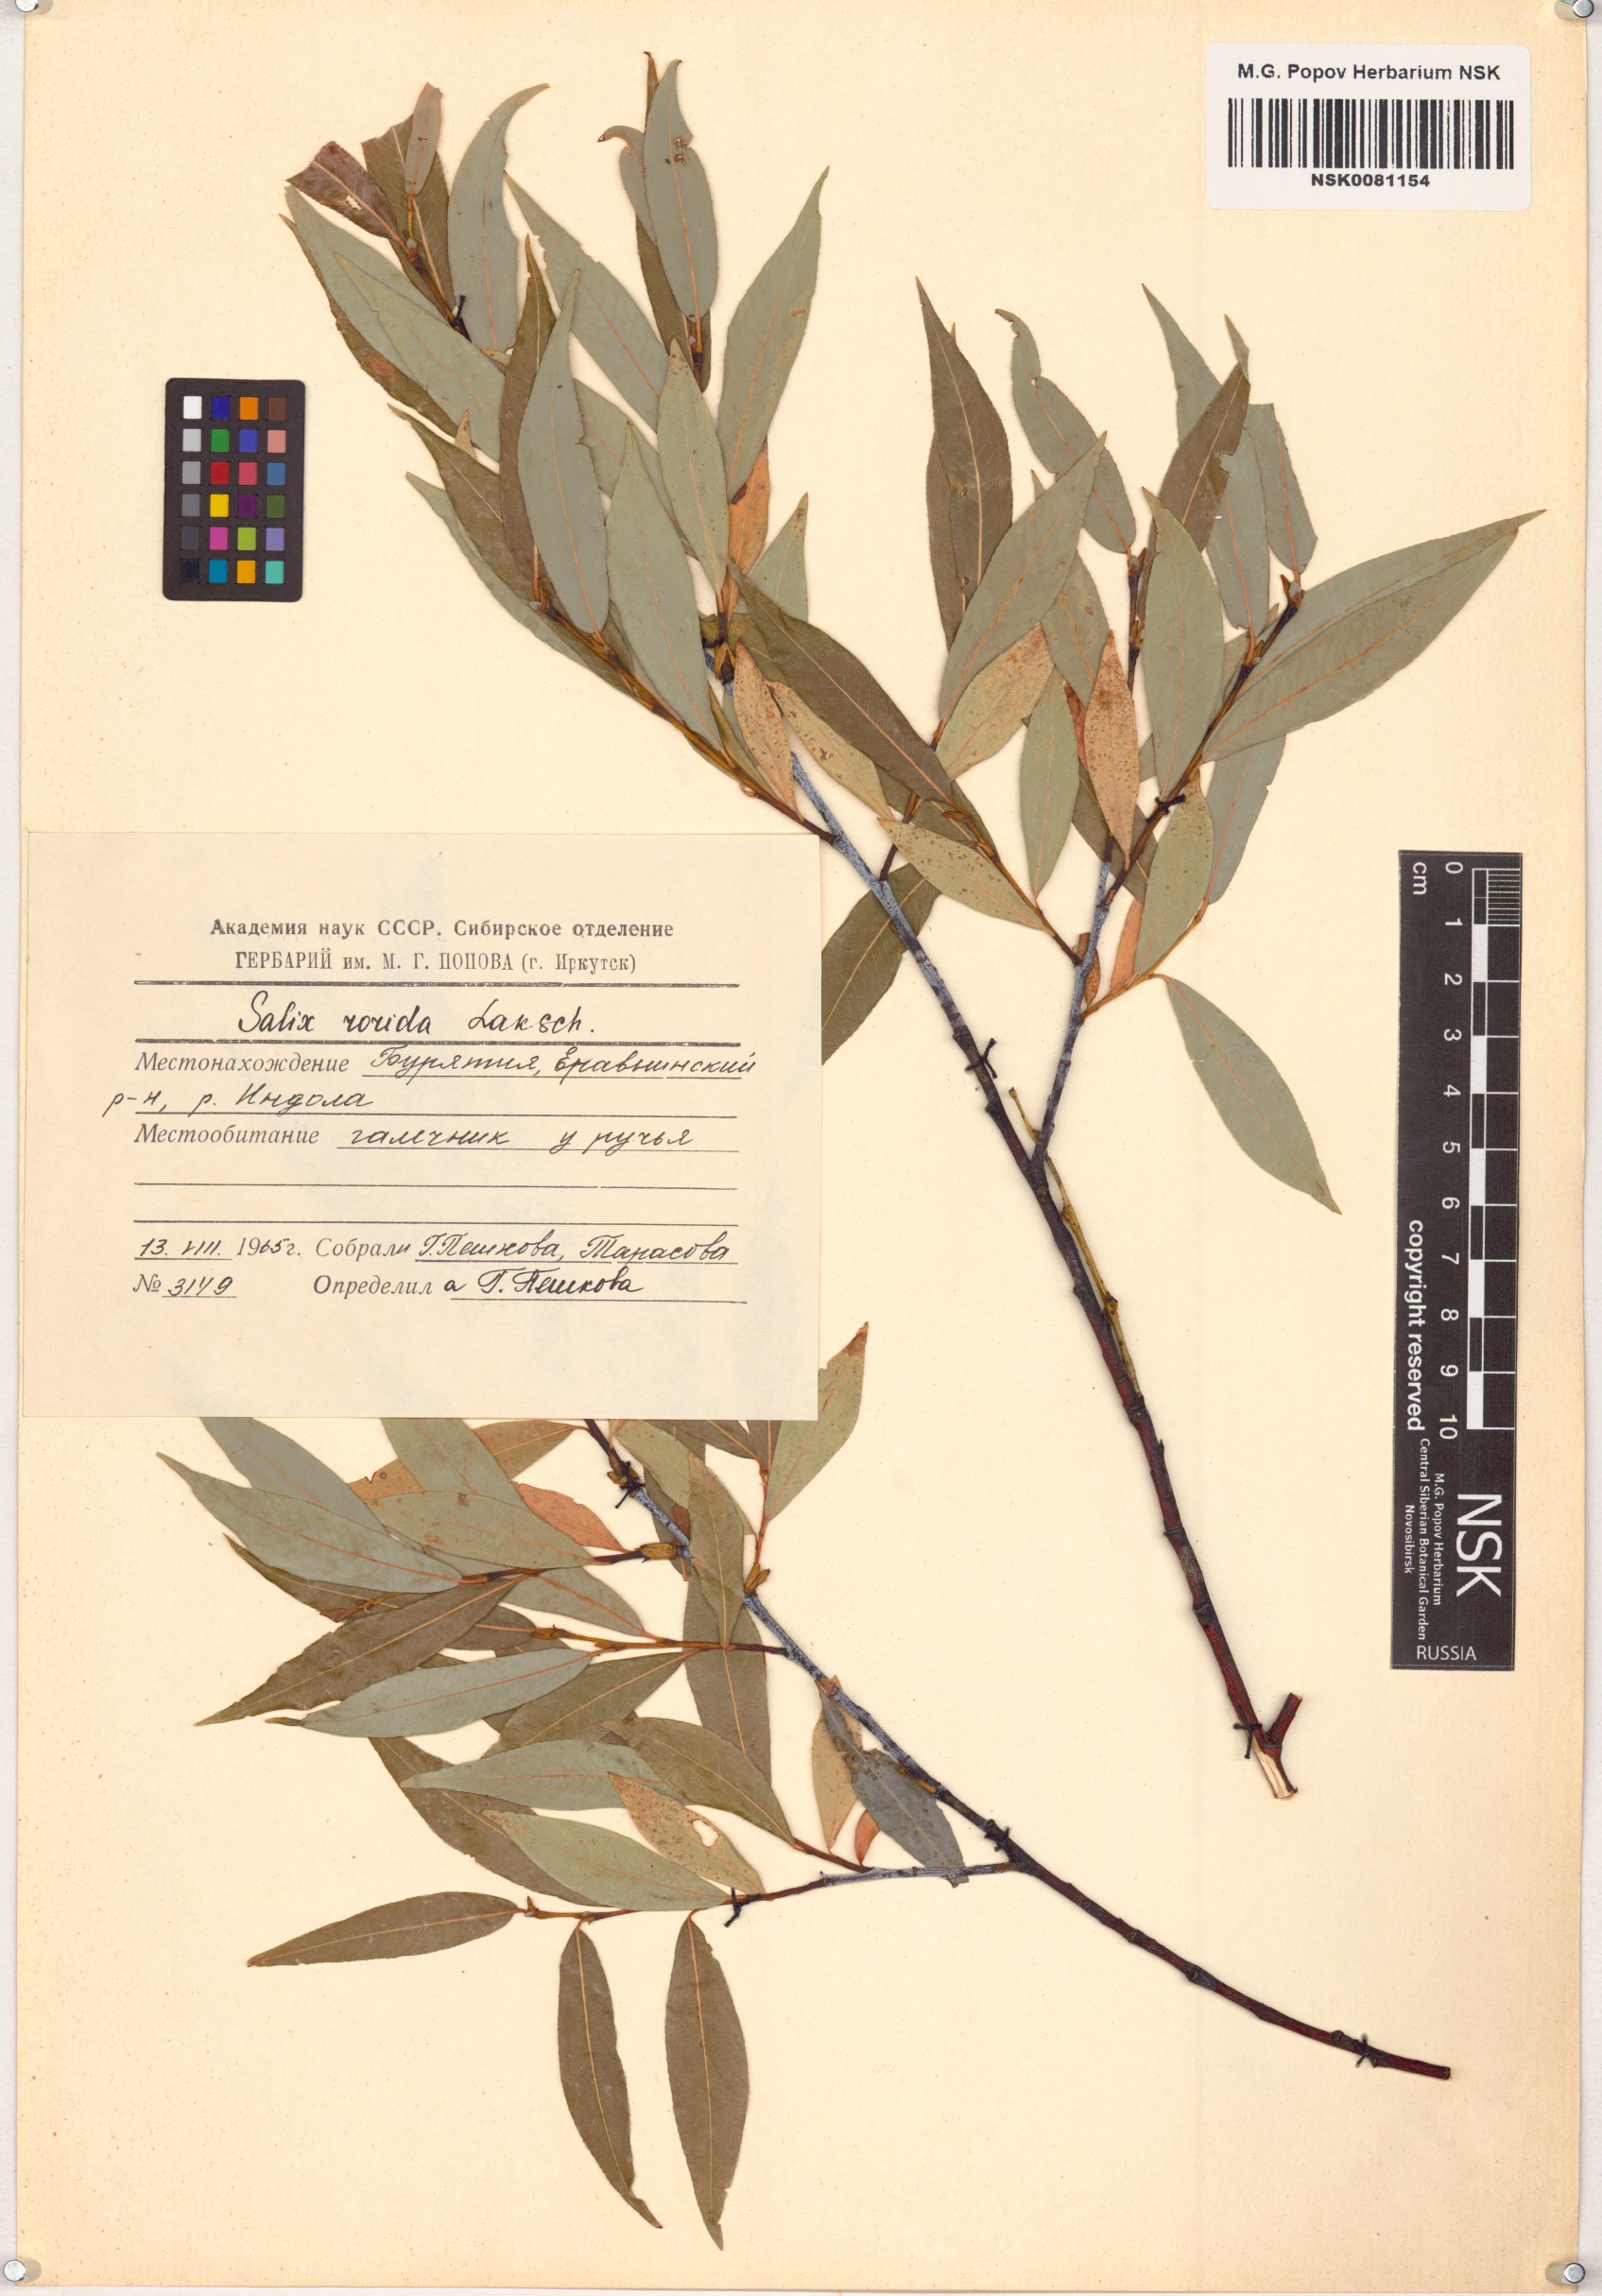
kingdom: Plantae
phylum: Tracheophyta
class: Magnoliopsida
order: Malpighiales
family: Salicaceae
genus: Salix
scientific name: Salix rorida
